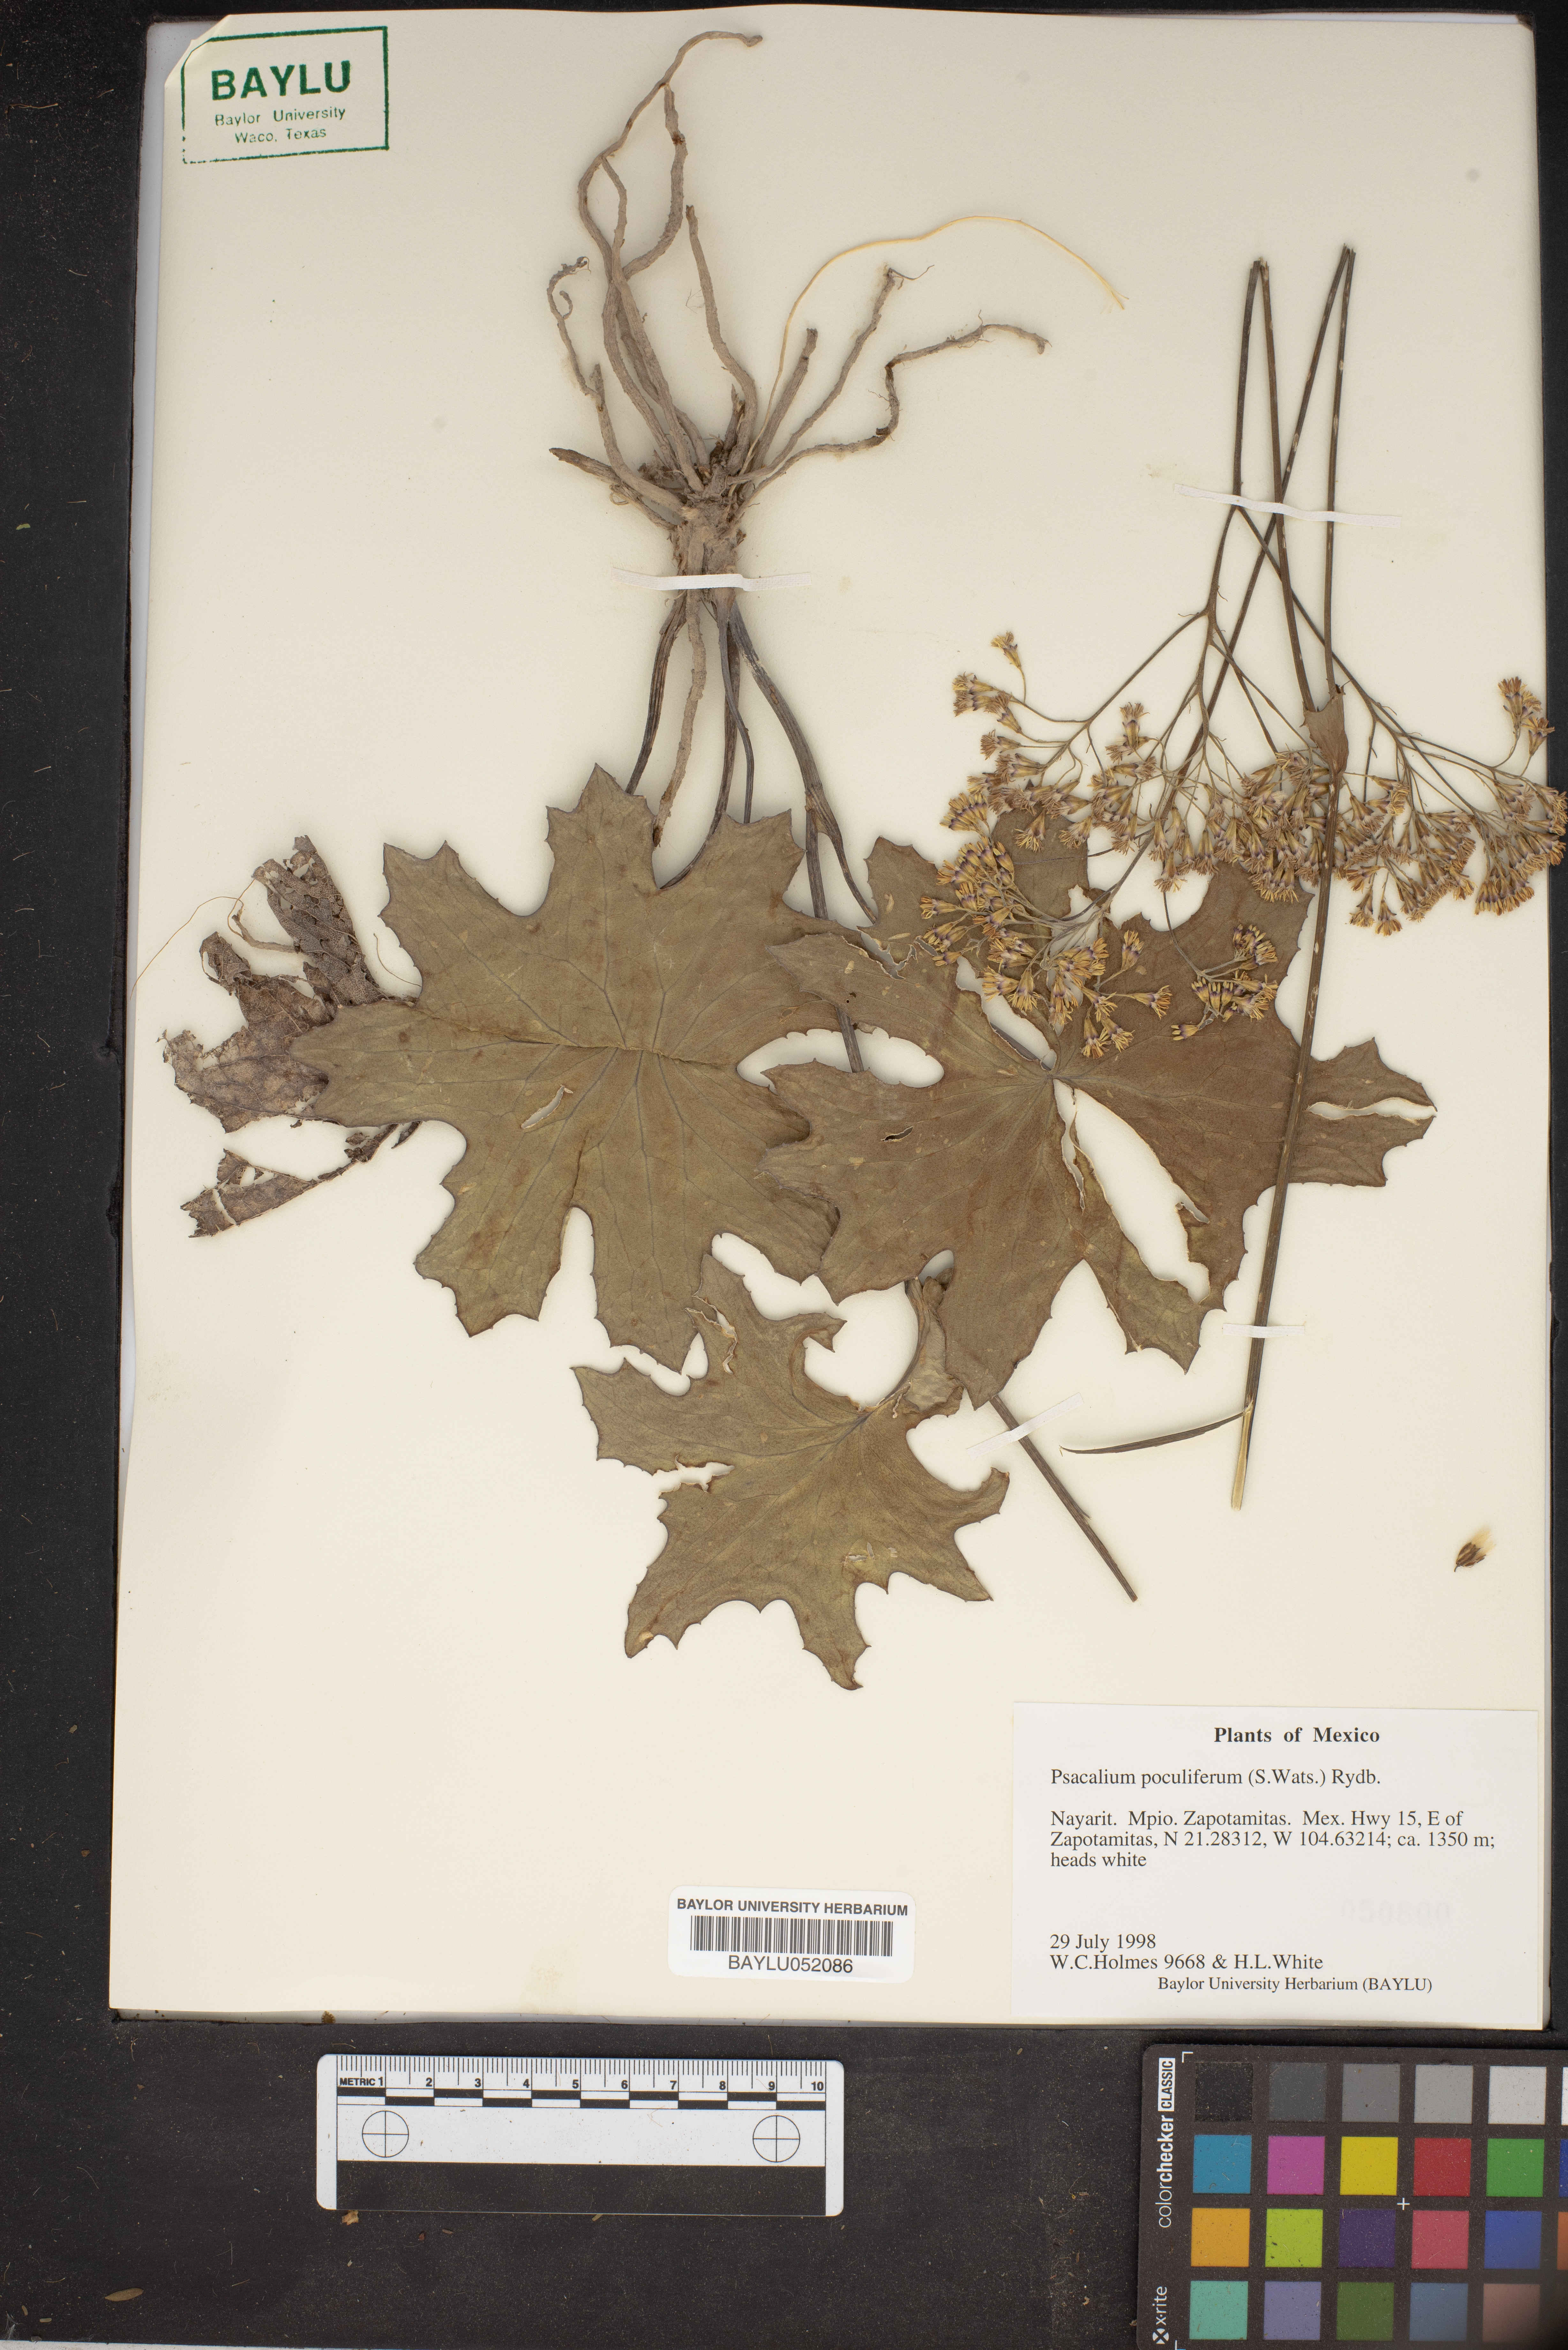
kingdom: Plantae
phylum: Tracheophyta
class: Magnoliopsida
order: Asterales
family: Asteraceae
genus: Psacalium
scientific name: Psacalium poculiferum
